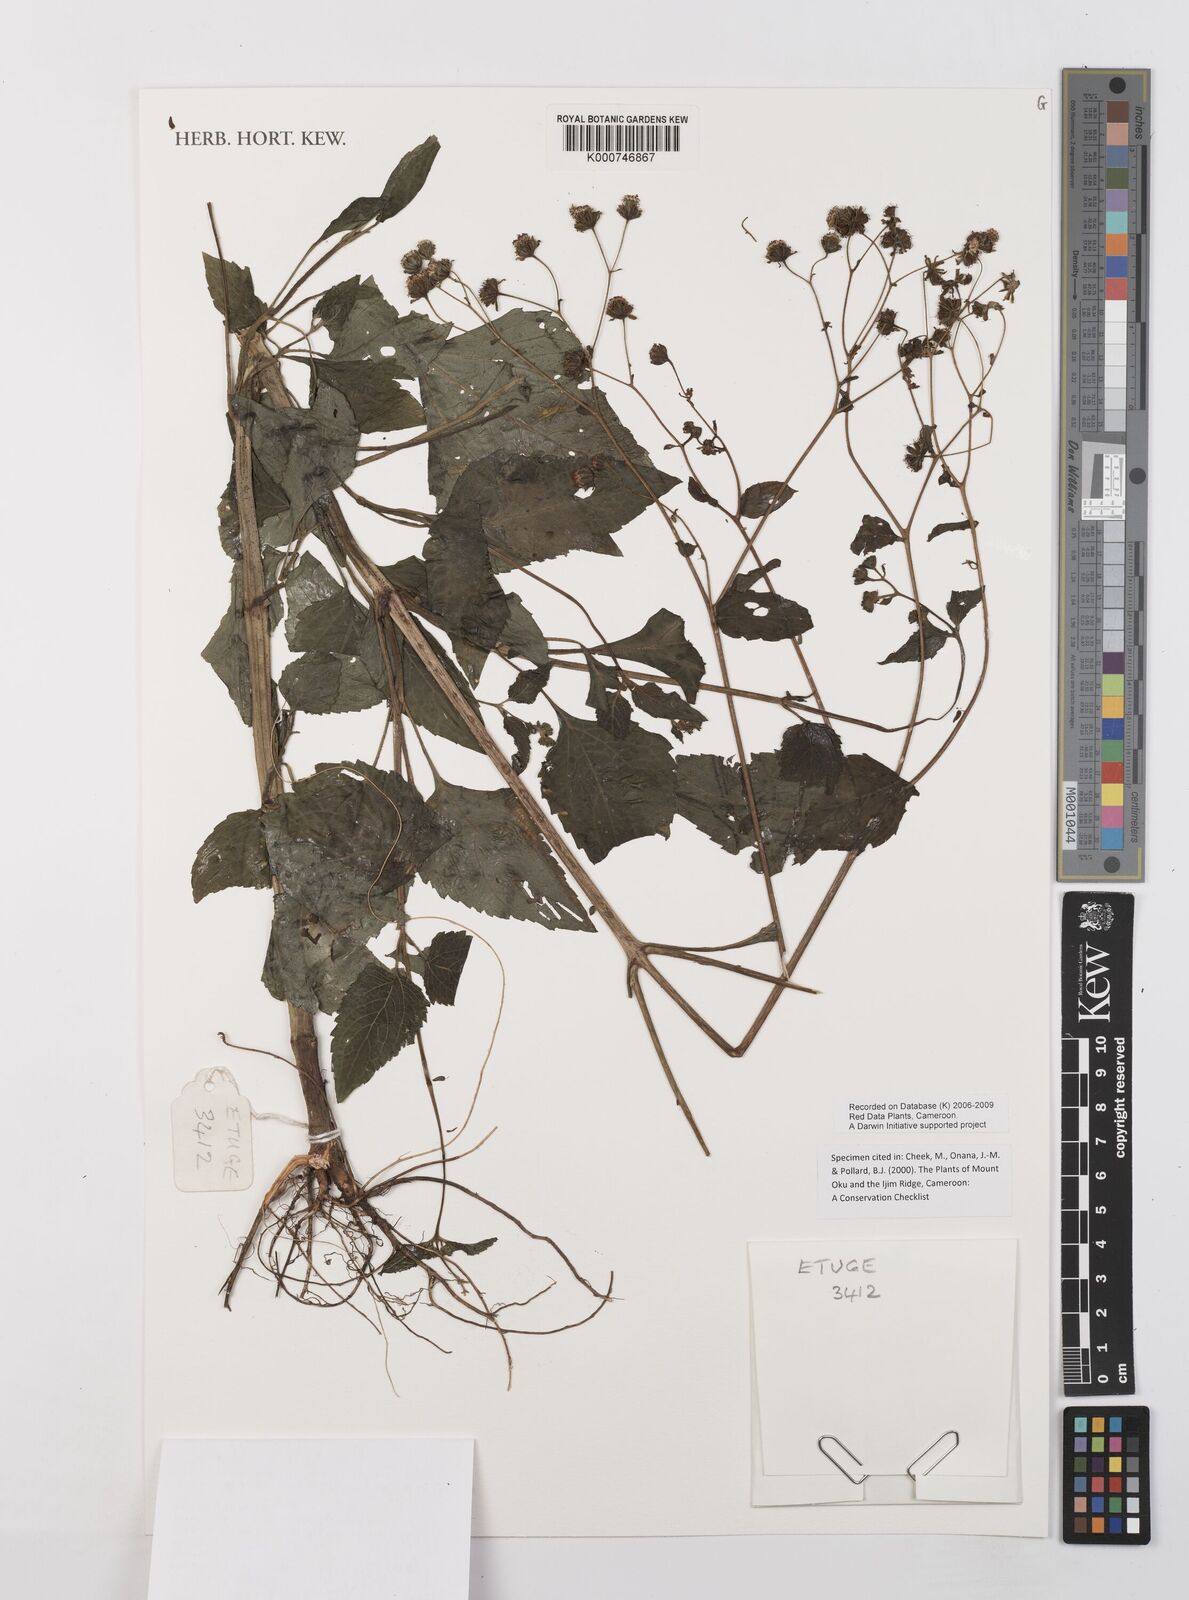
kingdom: Plantae
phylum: Tracheophyta
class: Magnoliopsida
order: Asterales
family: Asteraceae
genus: Adenostemma
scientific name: Adenostemma mauritianum
